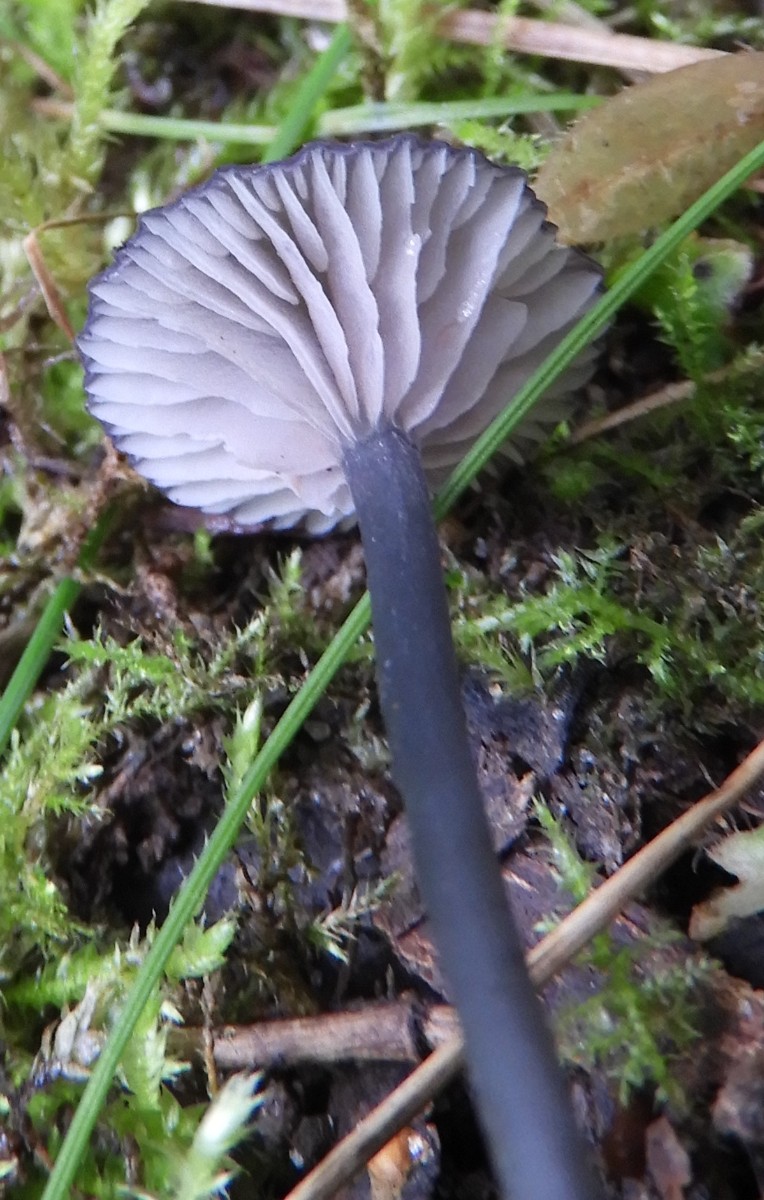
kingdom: Fungi
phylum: Basidiomycota
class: Agaricomycetes
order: Agaricales
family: Entolomataceae
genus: Entoloma
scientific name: Entoloma
